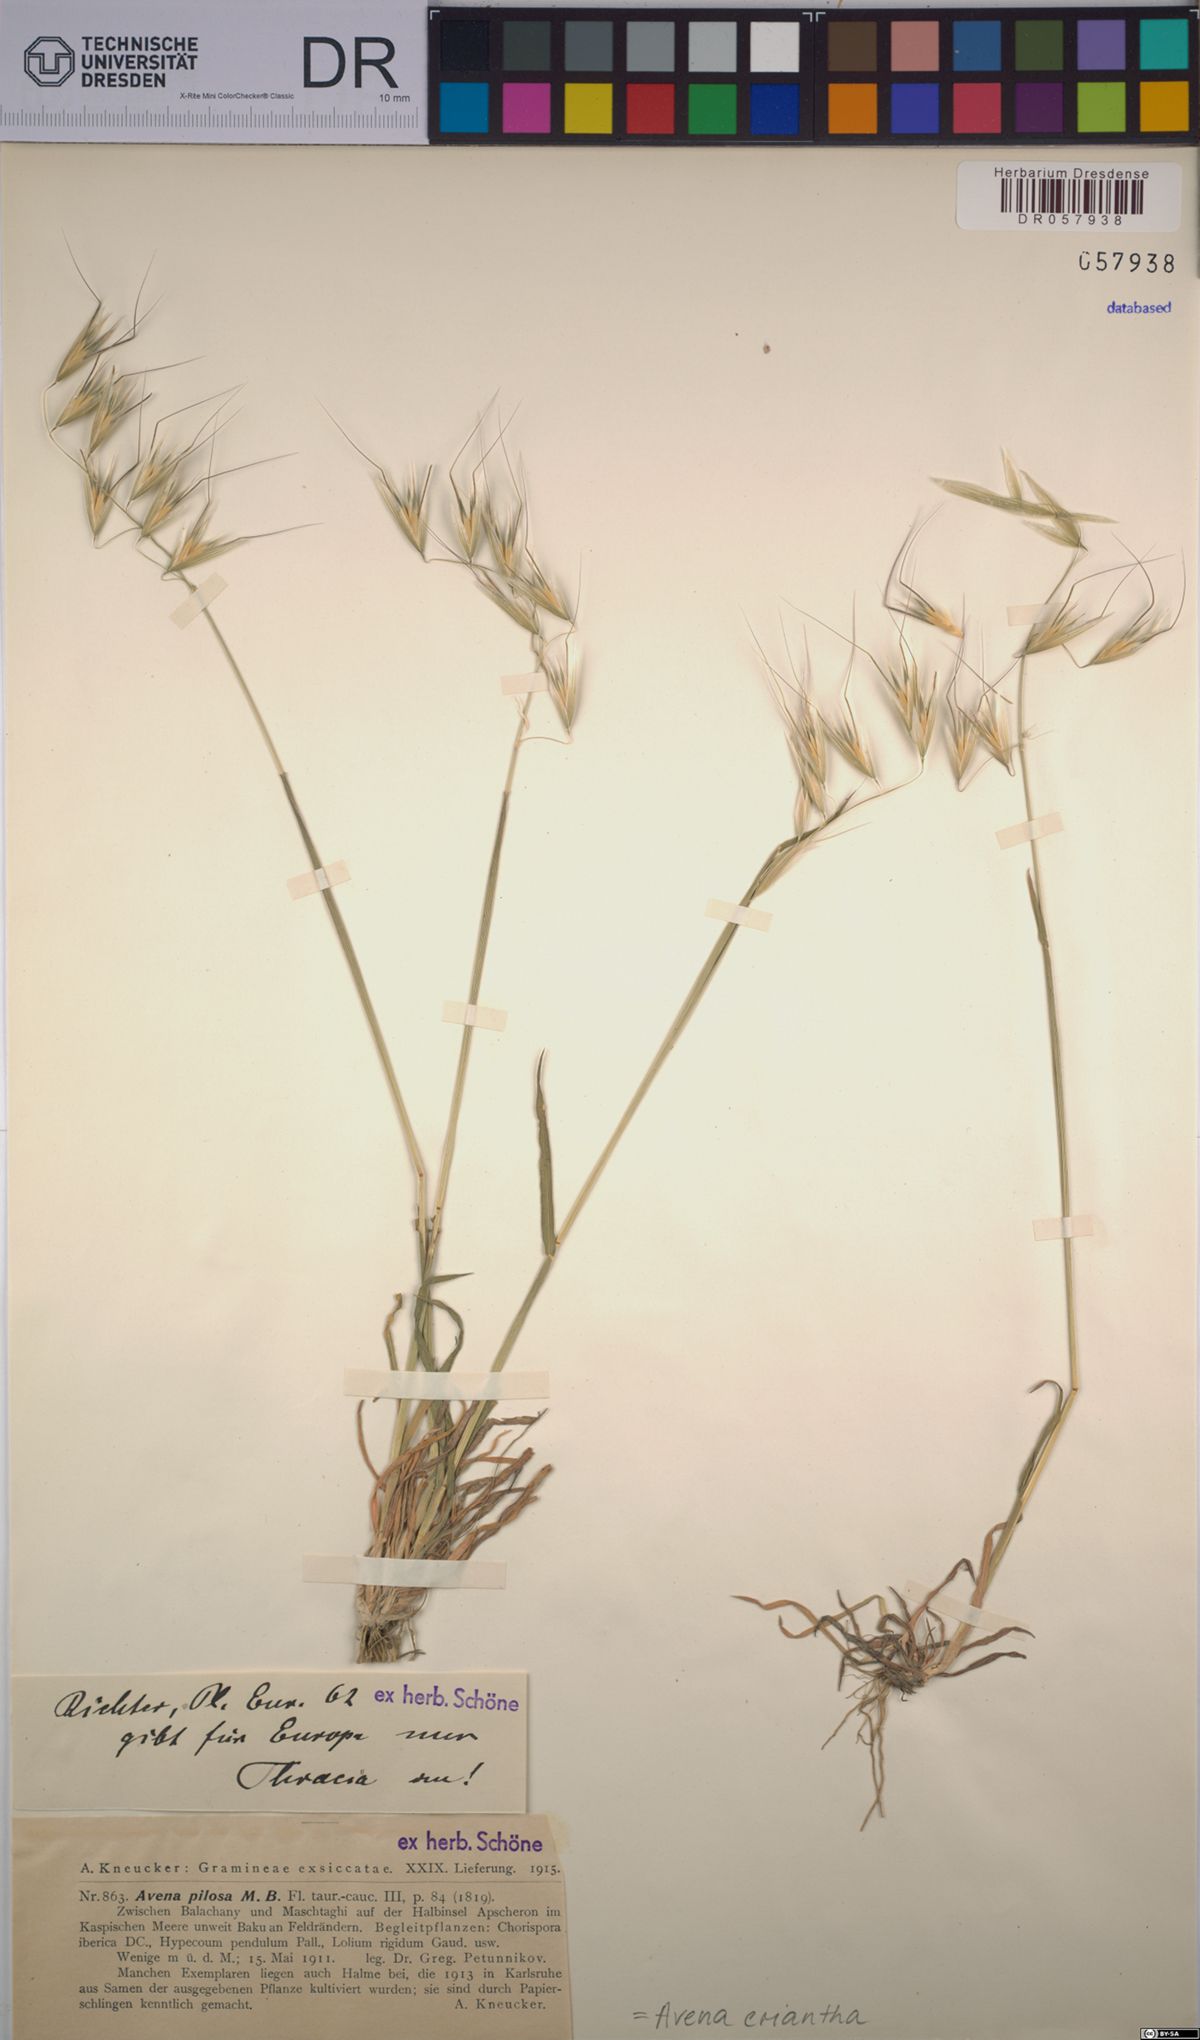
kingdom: Plantae
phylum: Tracheophyta
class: Liliopsida
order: Poales
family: Poaceae
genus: Avena
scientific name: Avena eriantha
